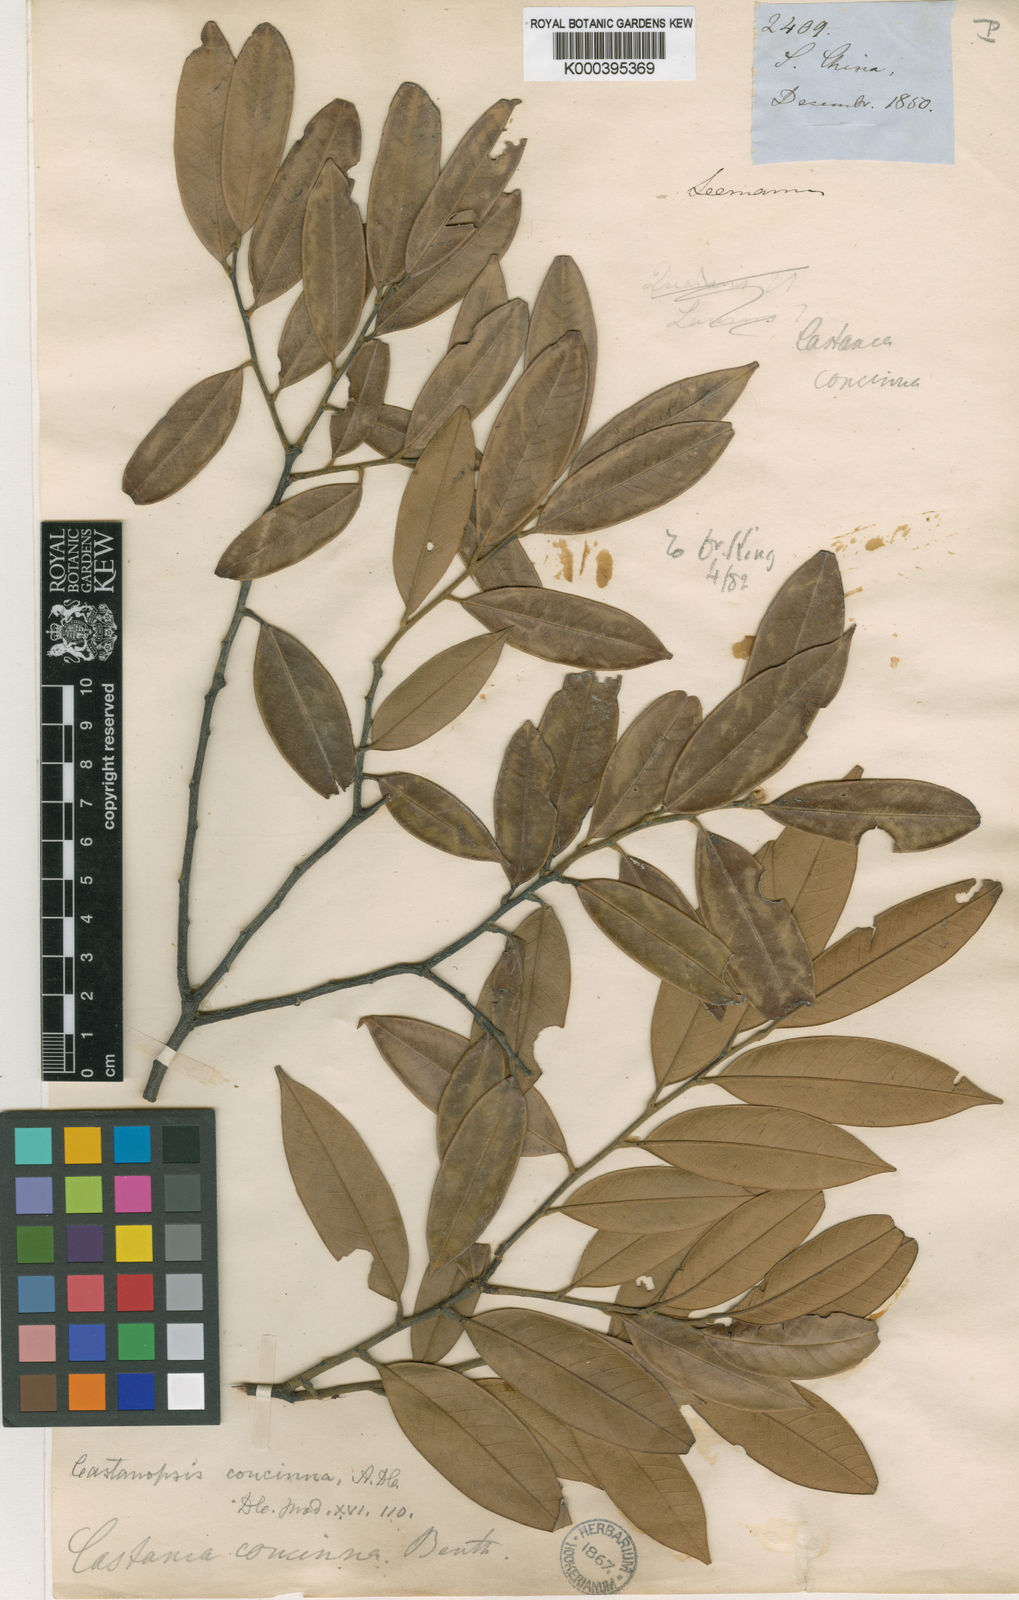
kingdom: Plantae
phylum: Tracheophyta
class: Magnoliopsida
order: Fagales
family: Fagaceae
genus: Castanopsis
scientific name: Castanopsis concinna
